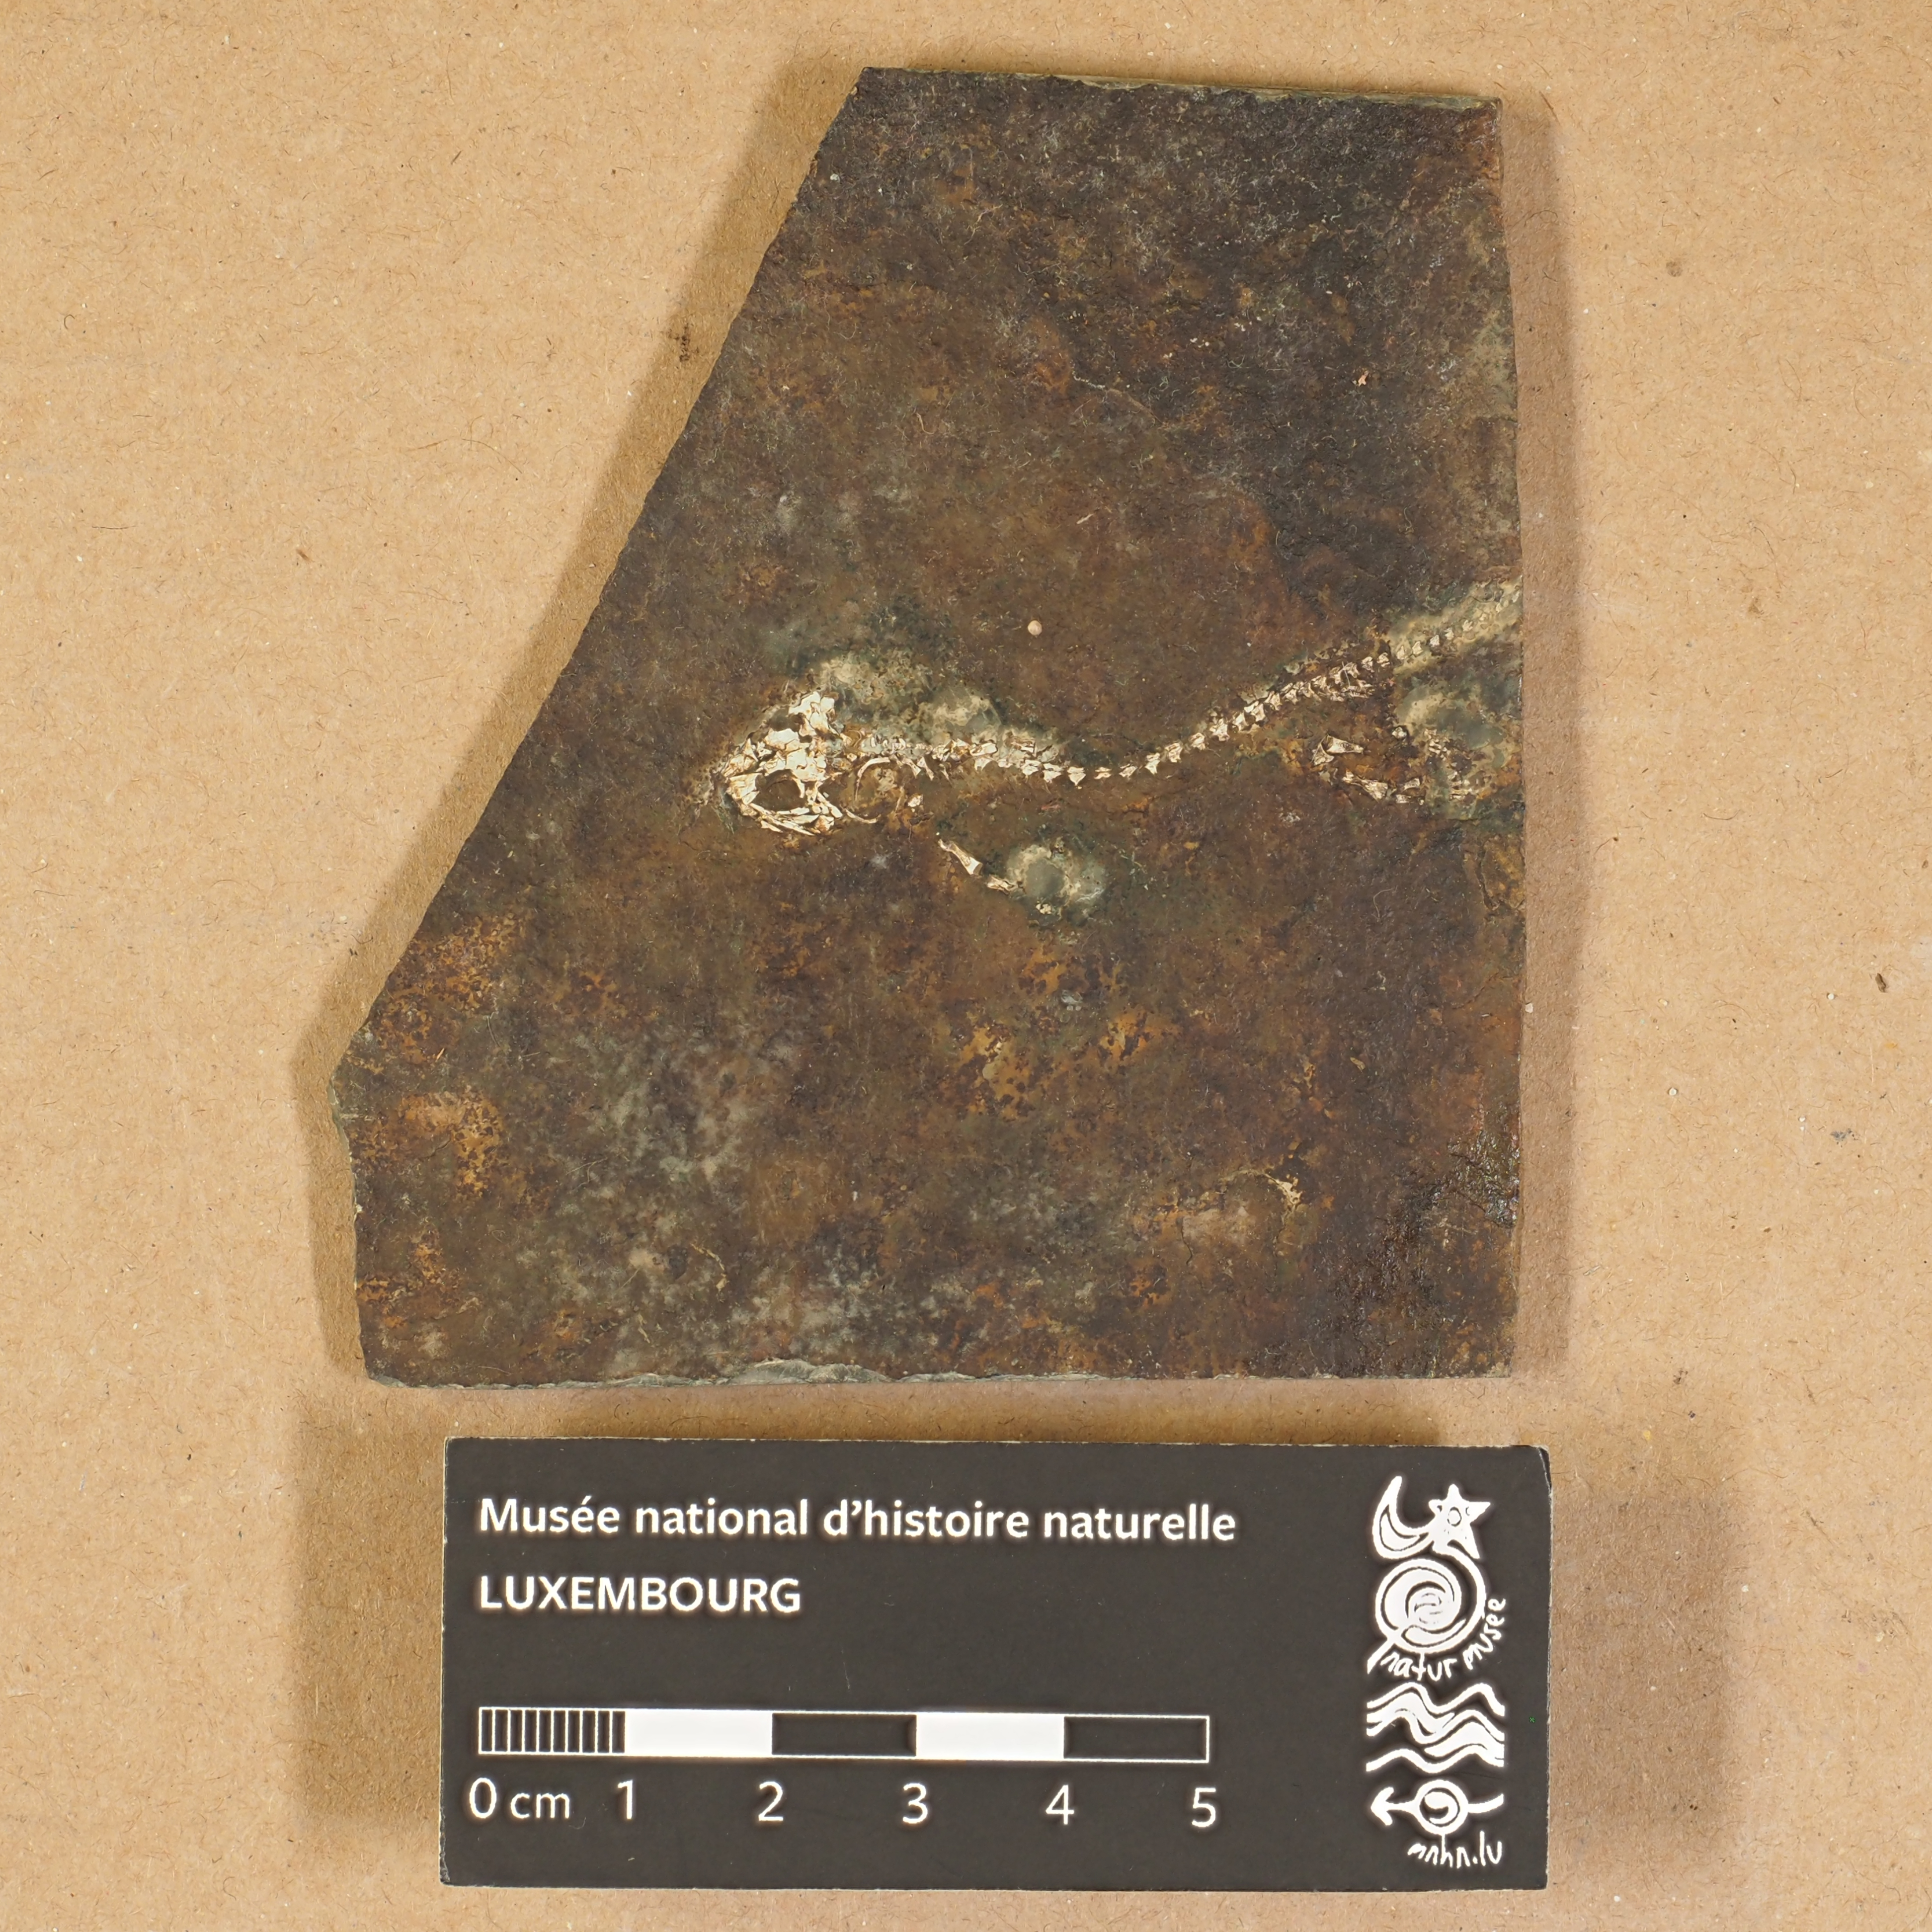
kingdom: Animalia
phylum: Chordata
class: Amphibia
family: Branchiosauridae
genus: Apateon
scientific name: Apateon Branchiosaurus dracyi
